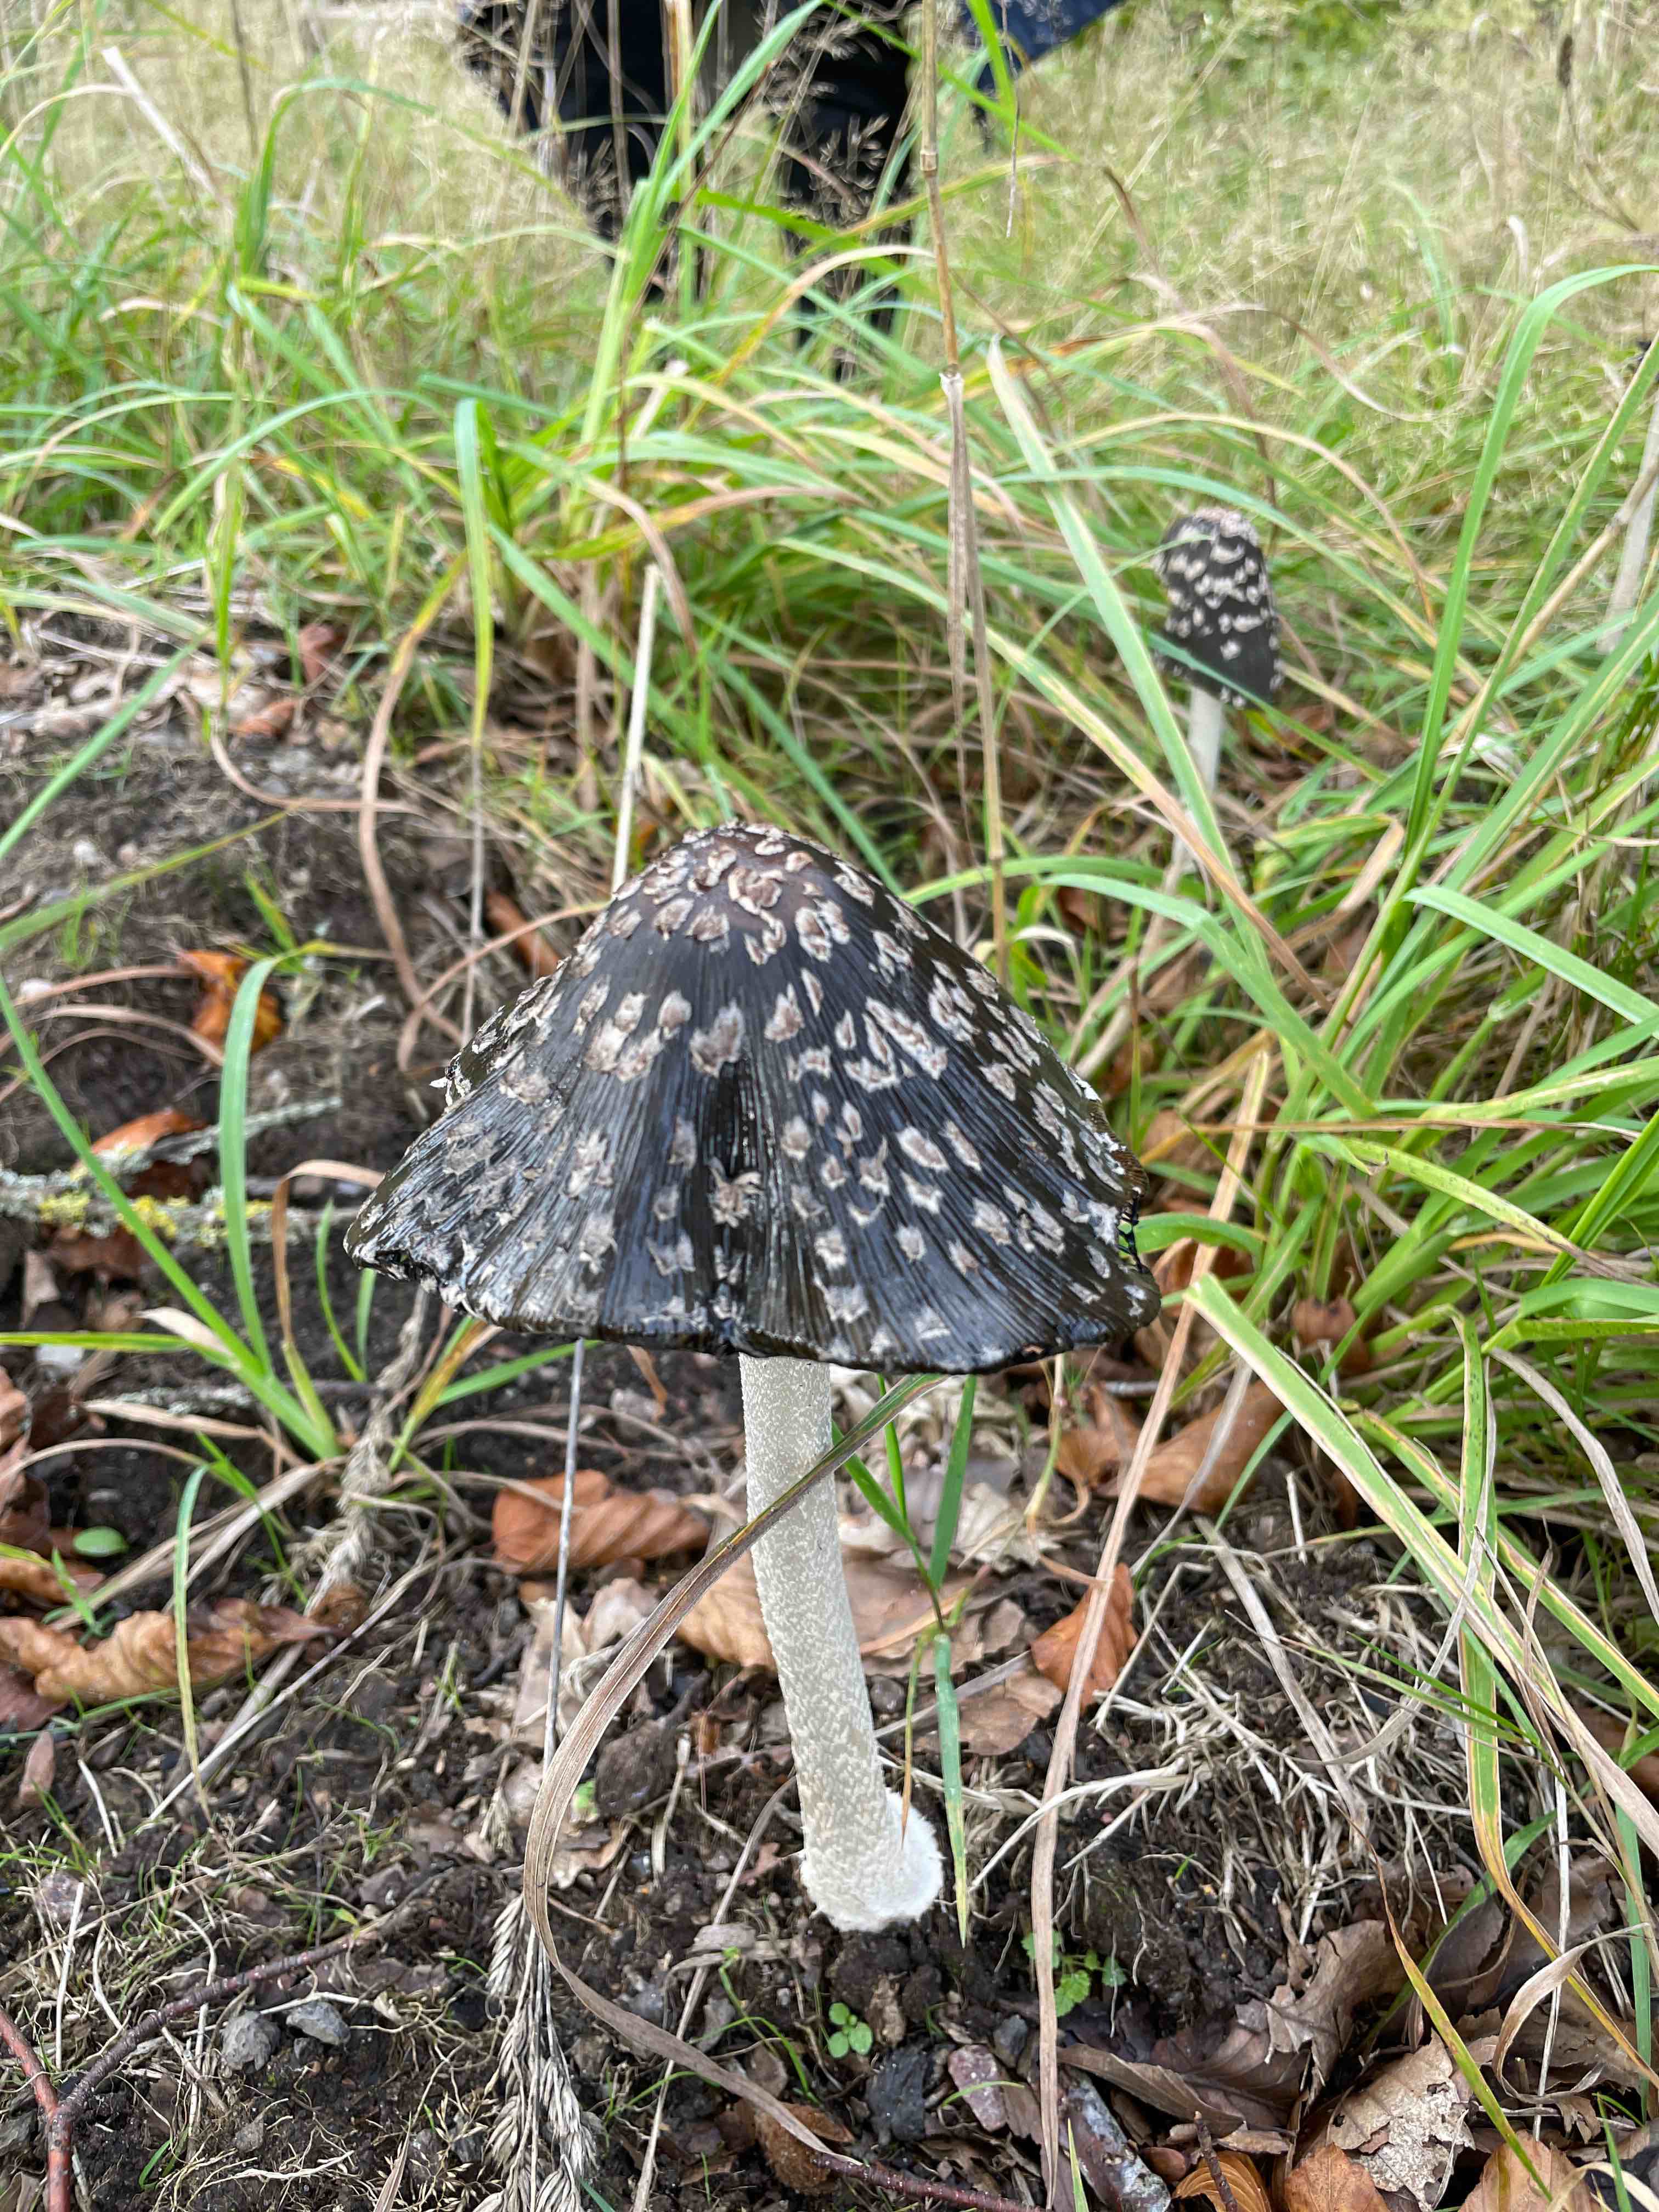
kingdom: Fungi
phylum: Basidiomycota
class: Agaricomycetes
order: Agaricales
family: Psathyrellaceae
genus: Coprinopsis
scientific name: Coprinopsis picacea
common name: skade-blækhat
